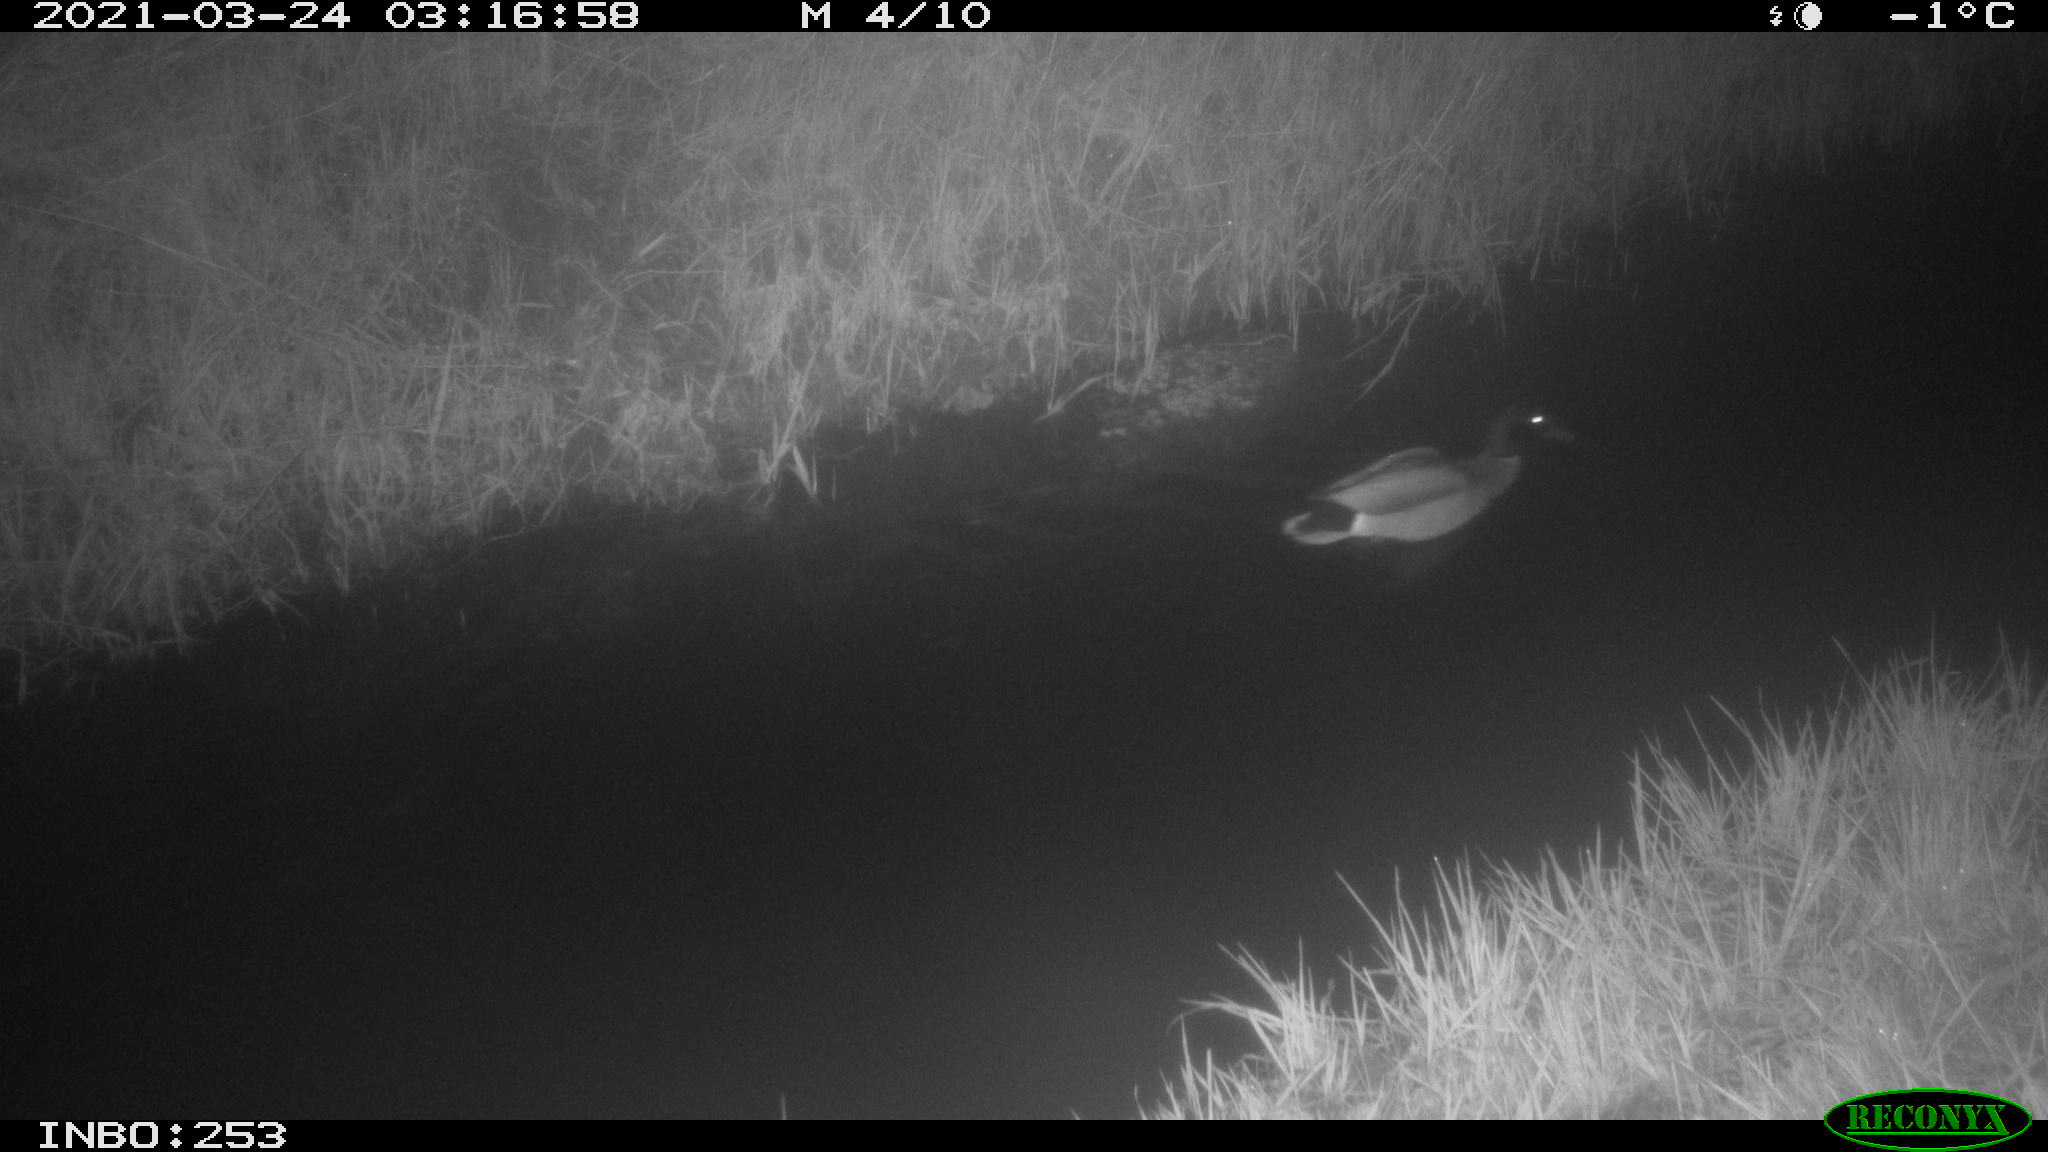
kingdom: Animalia
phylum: Chordata
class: Aves
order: Anseriformes
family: Anatidae
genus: Anas
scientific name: Anas platyrhynchos
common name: Mallard
